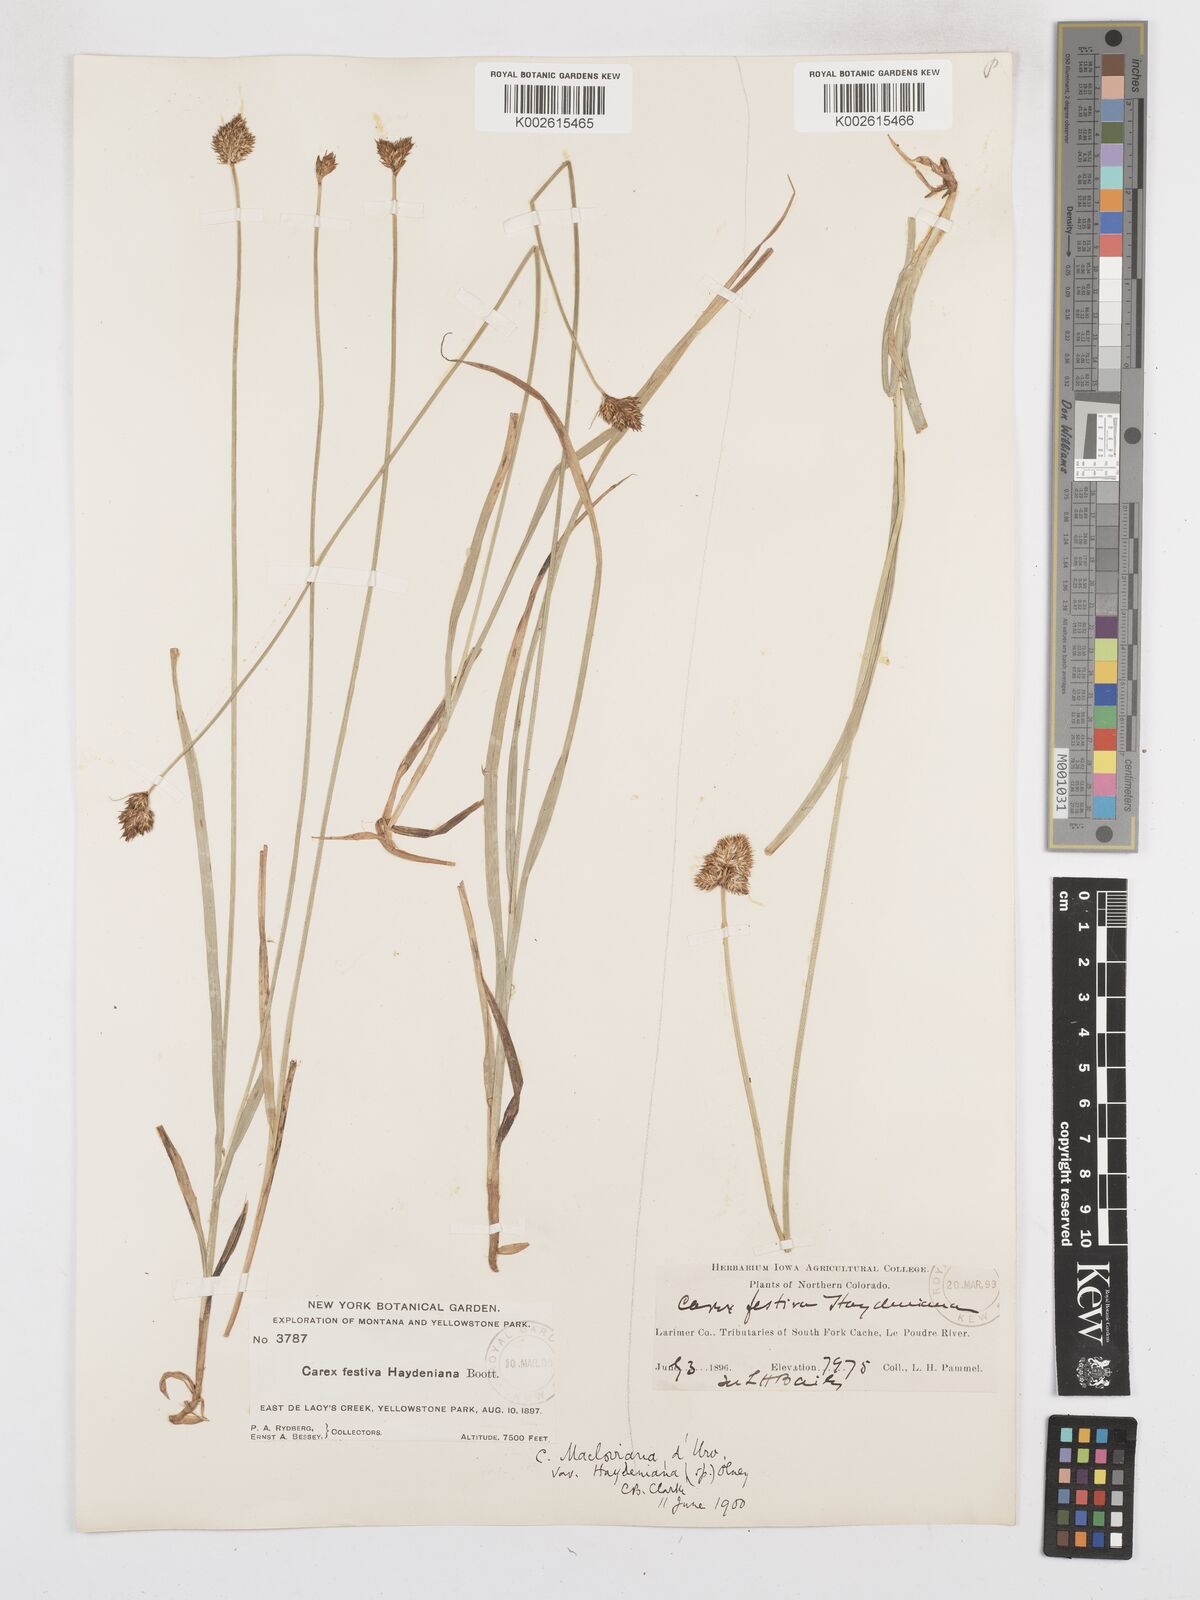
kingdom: Plantae
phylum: Tracheophyta
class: Liliopsida
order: Poales
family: Cyperaceae
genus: Carex
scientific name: Carex haydeniana
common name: Cloud sedge
